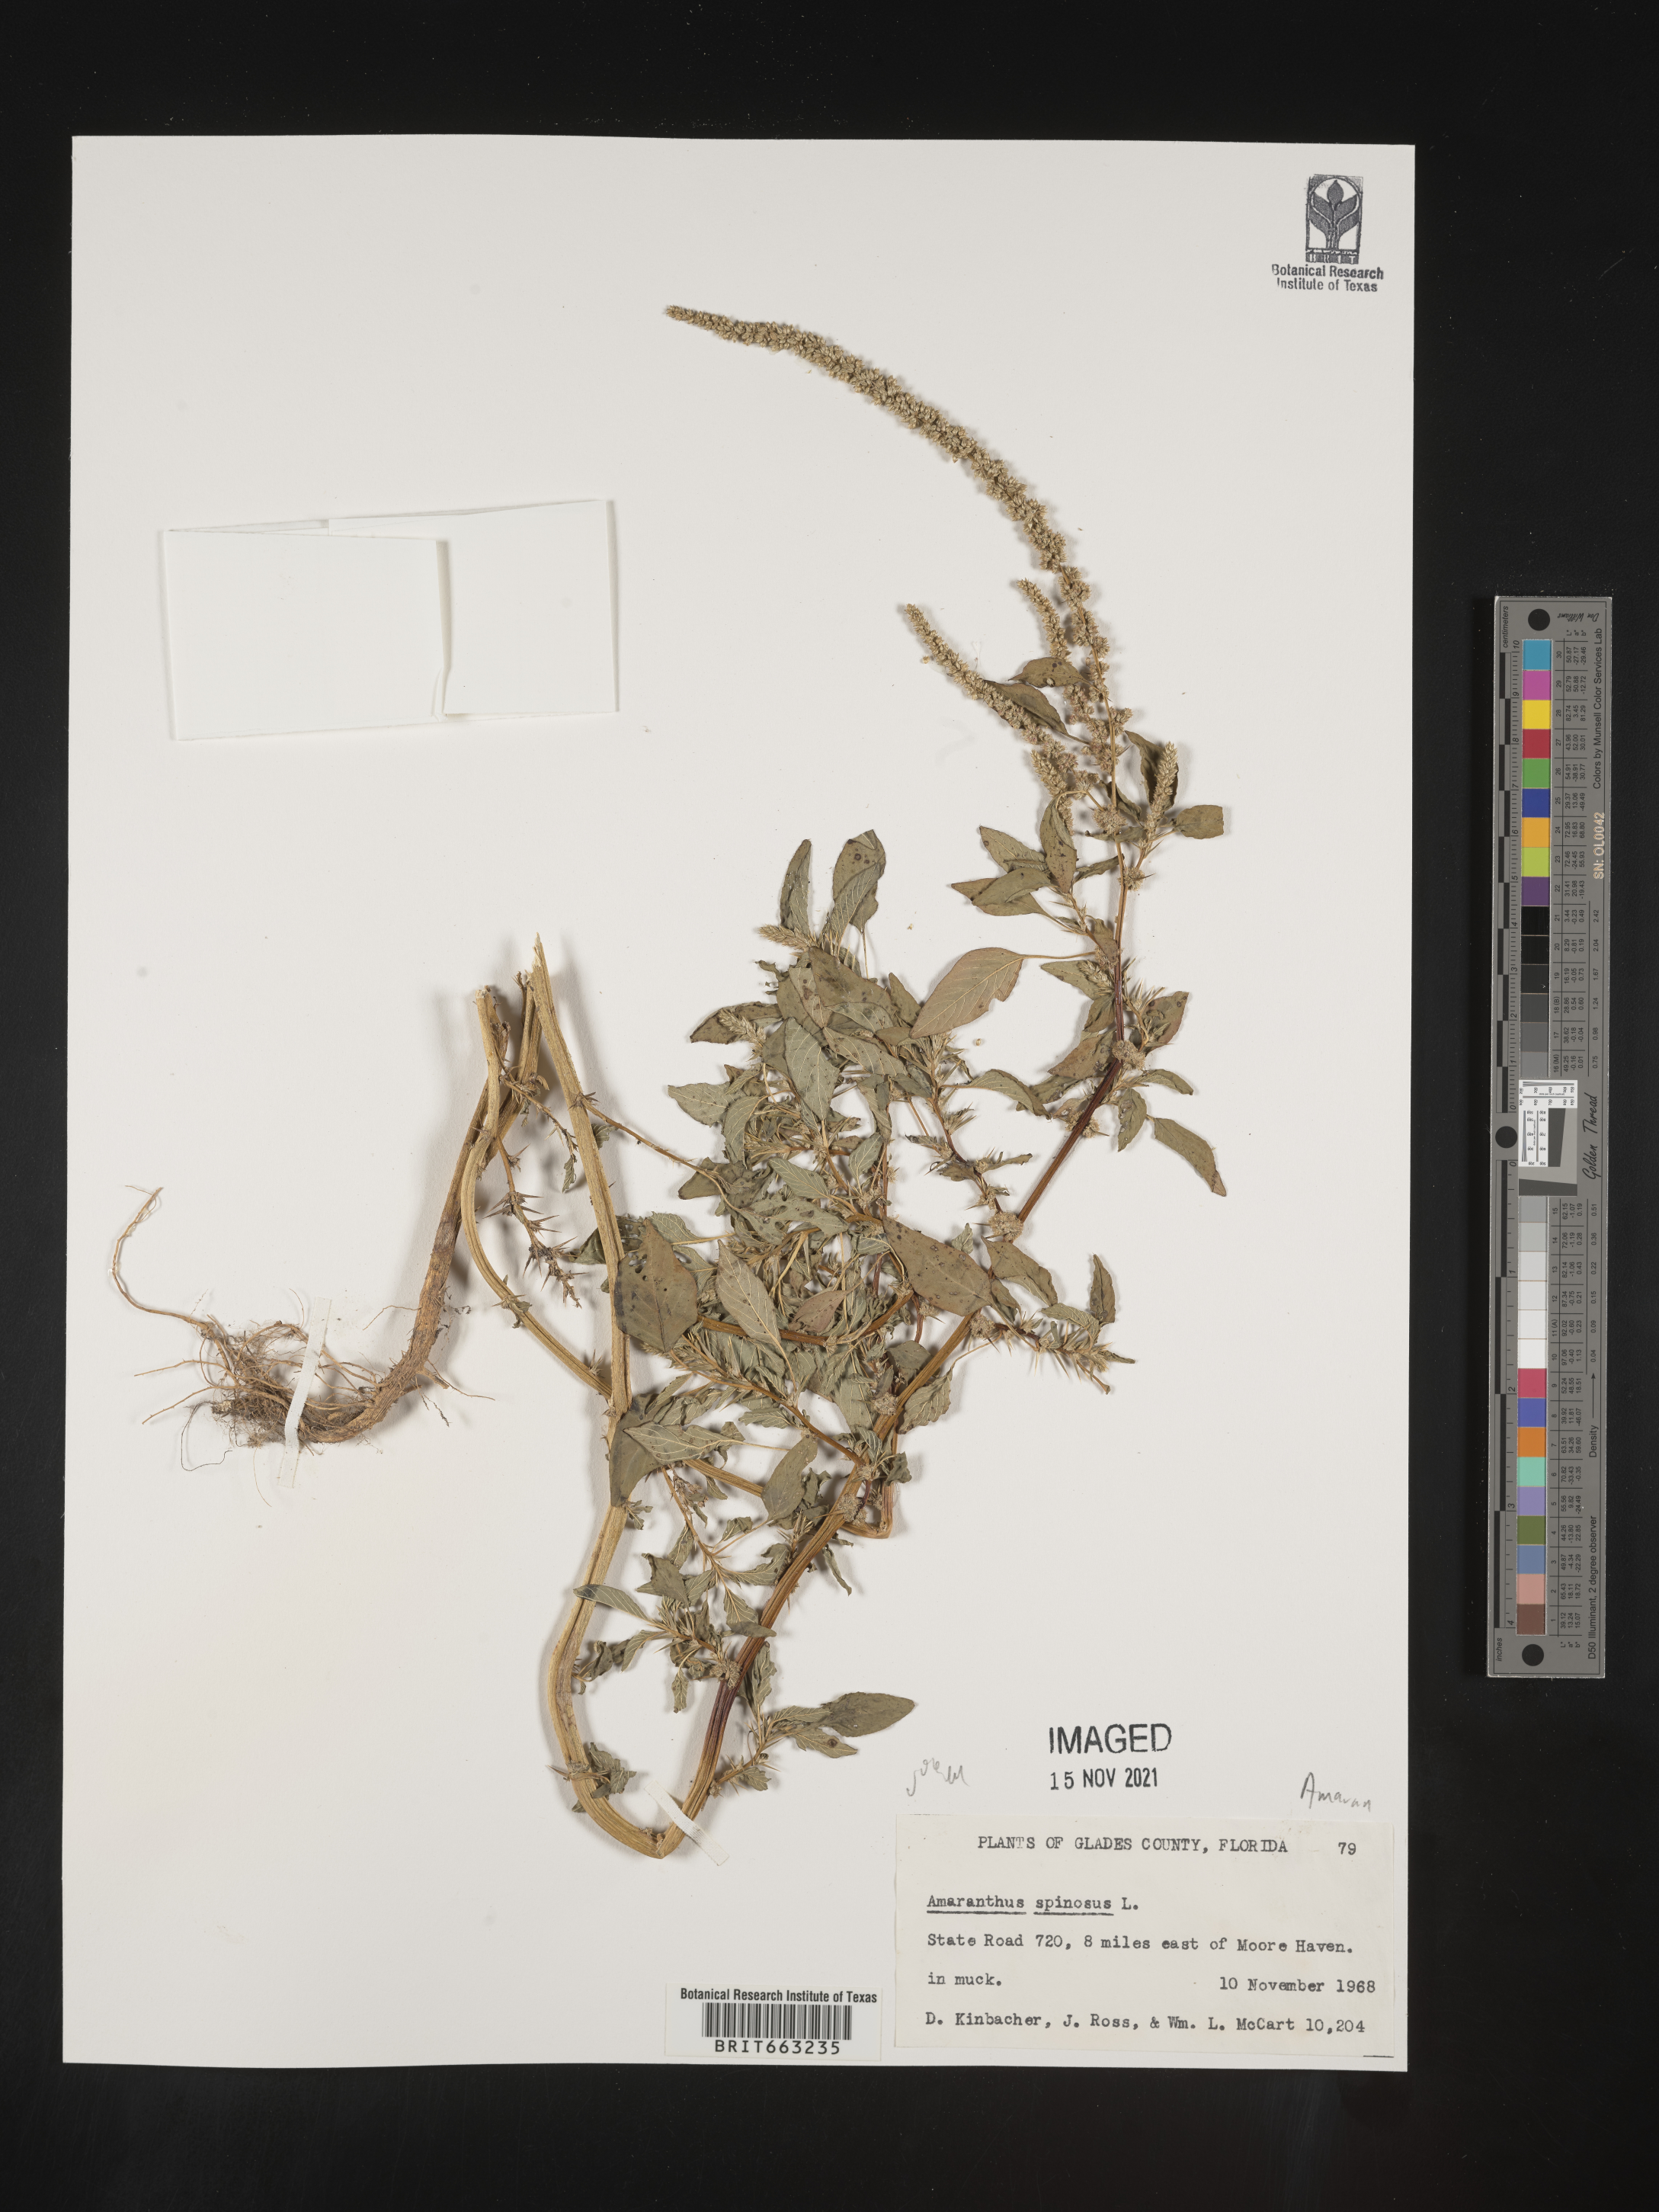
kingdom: Plantae
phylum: Tracheophyta
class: Magnoliopsida
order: Caryophyllales
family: Amaranthaceae
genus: Amaranthus
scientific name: Amaranthus spinosus
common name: Spiny amaranth
